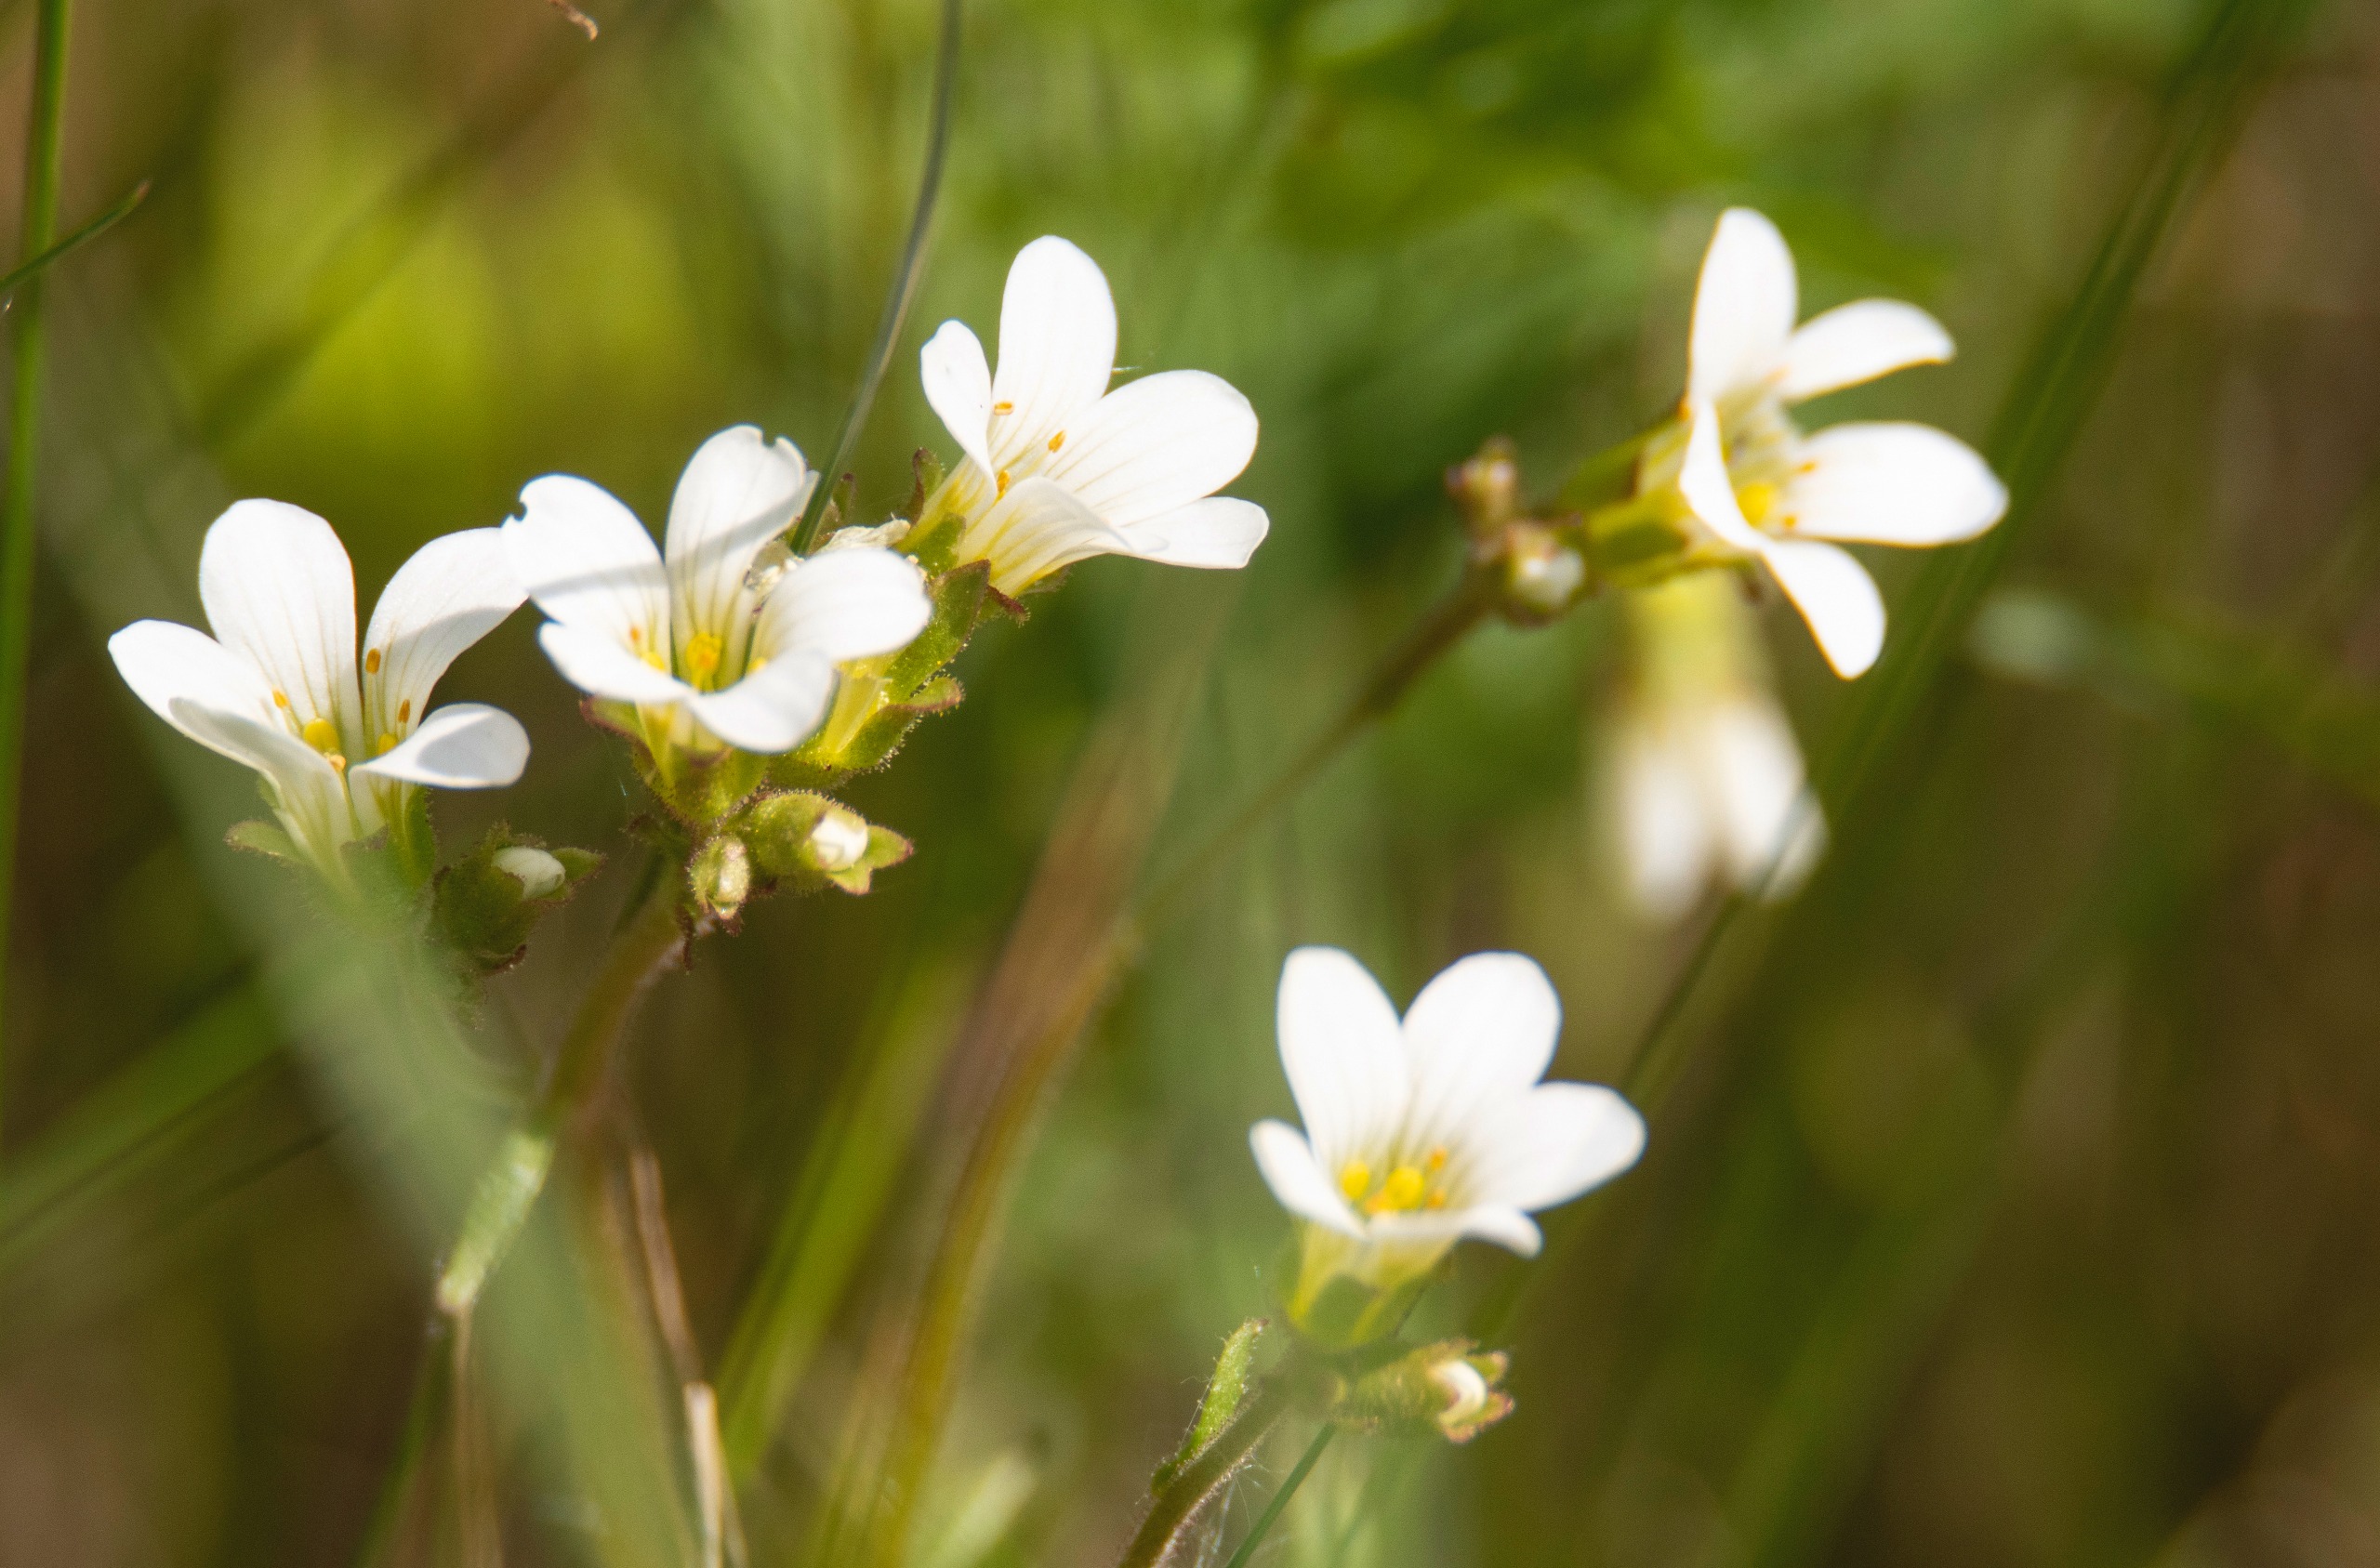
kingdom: Plantae
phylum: Tracheophyta
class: Magnoliopsida
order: Saxifragales
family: Saxifragaceae
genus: Saxifraga
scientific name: Saxifraga granulata
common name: Kornet stenbræk
